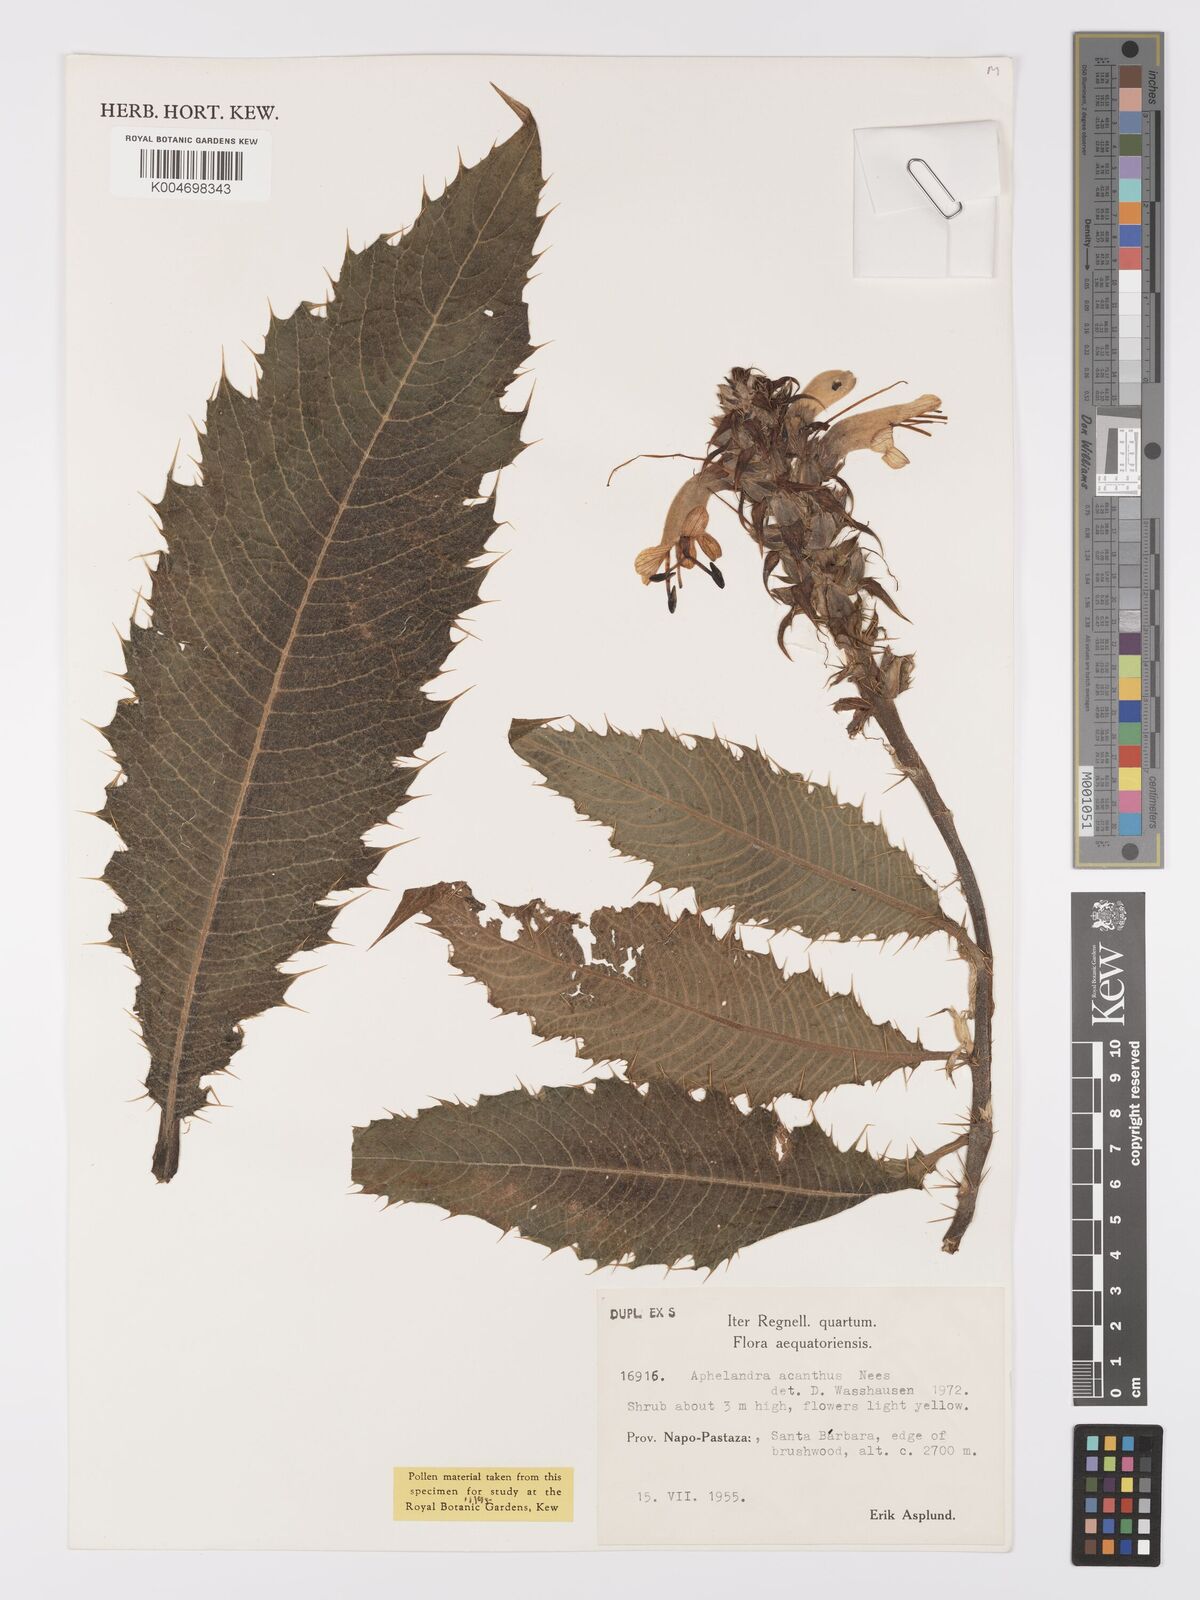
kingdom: Plantae
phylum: Tracheophyta
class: Magnoliopsida
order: Lamiales
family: Acanthaceae
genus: Aphelandra
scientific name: Aphelandra acanthus
